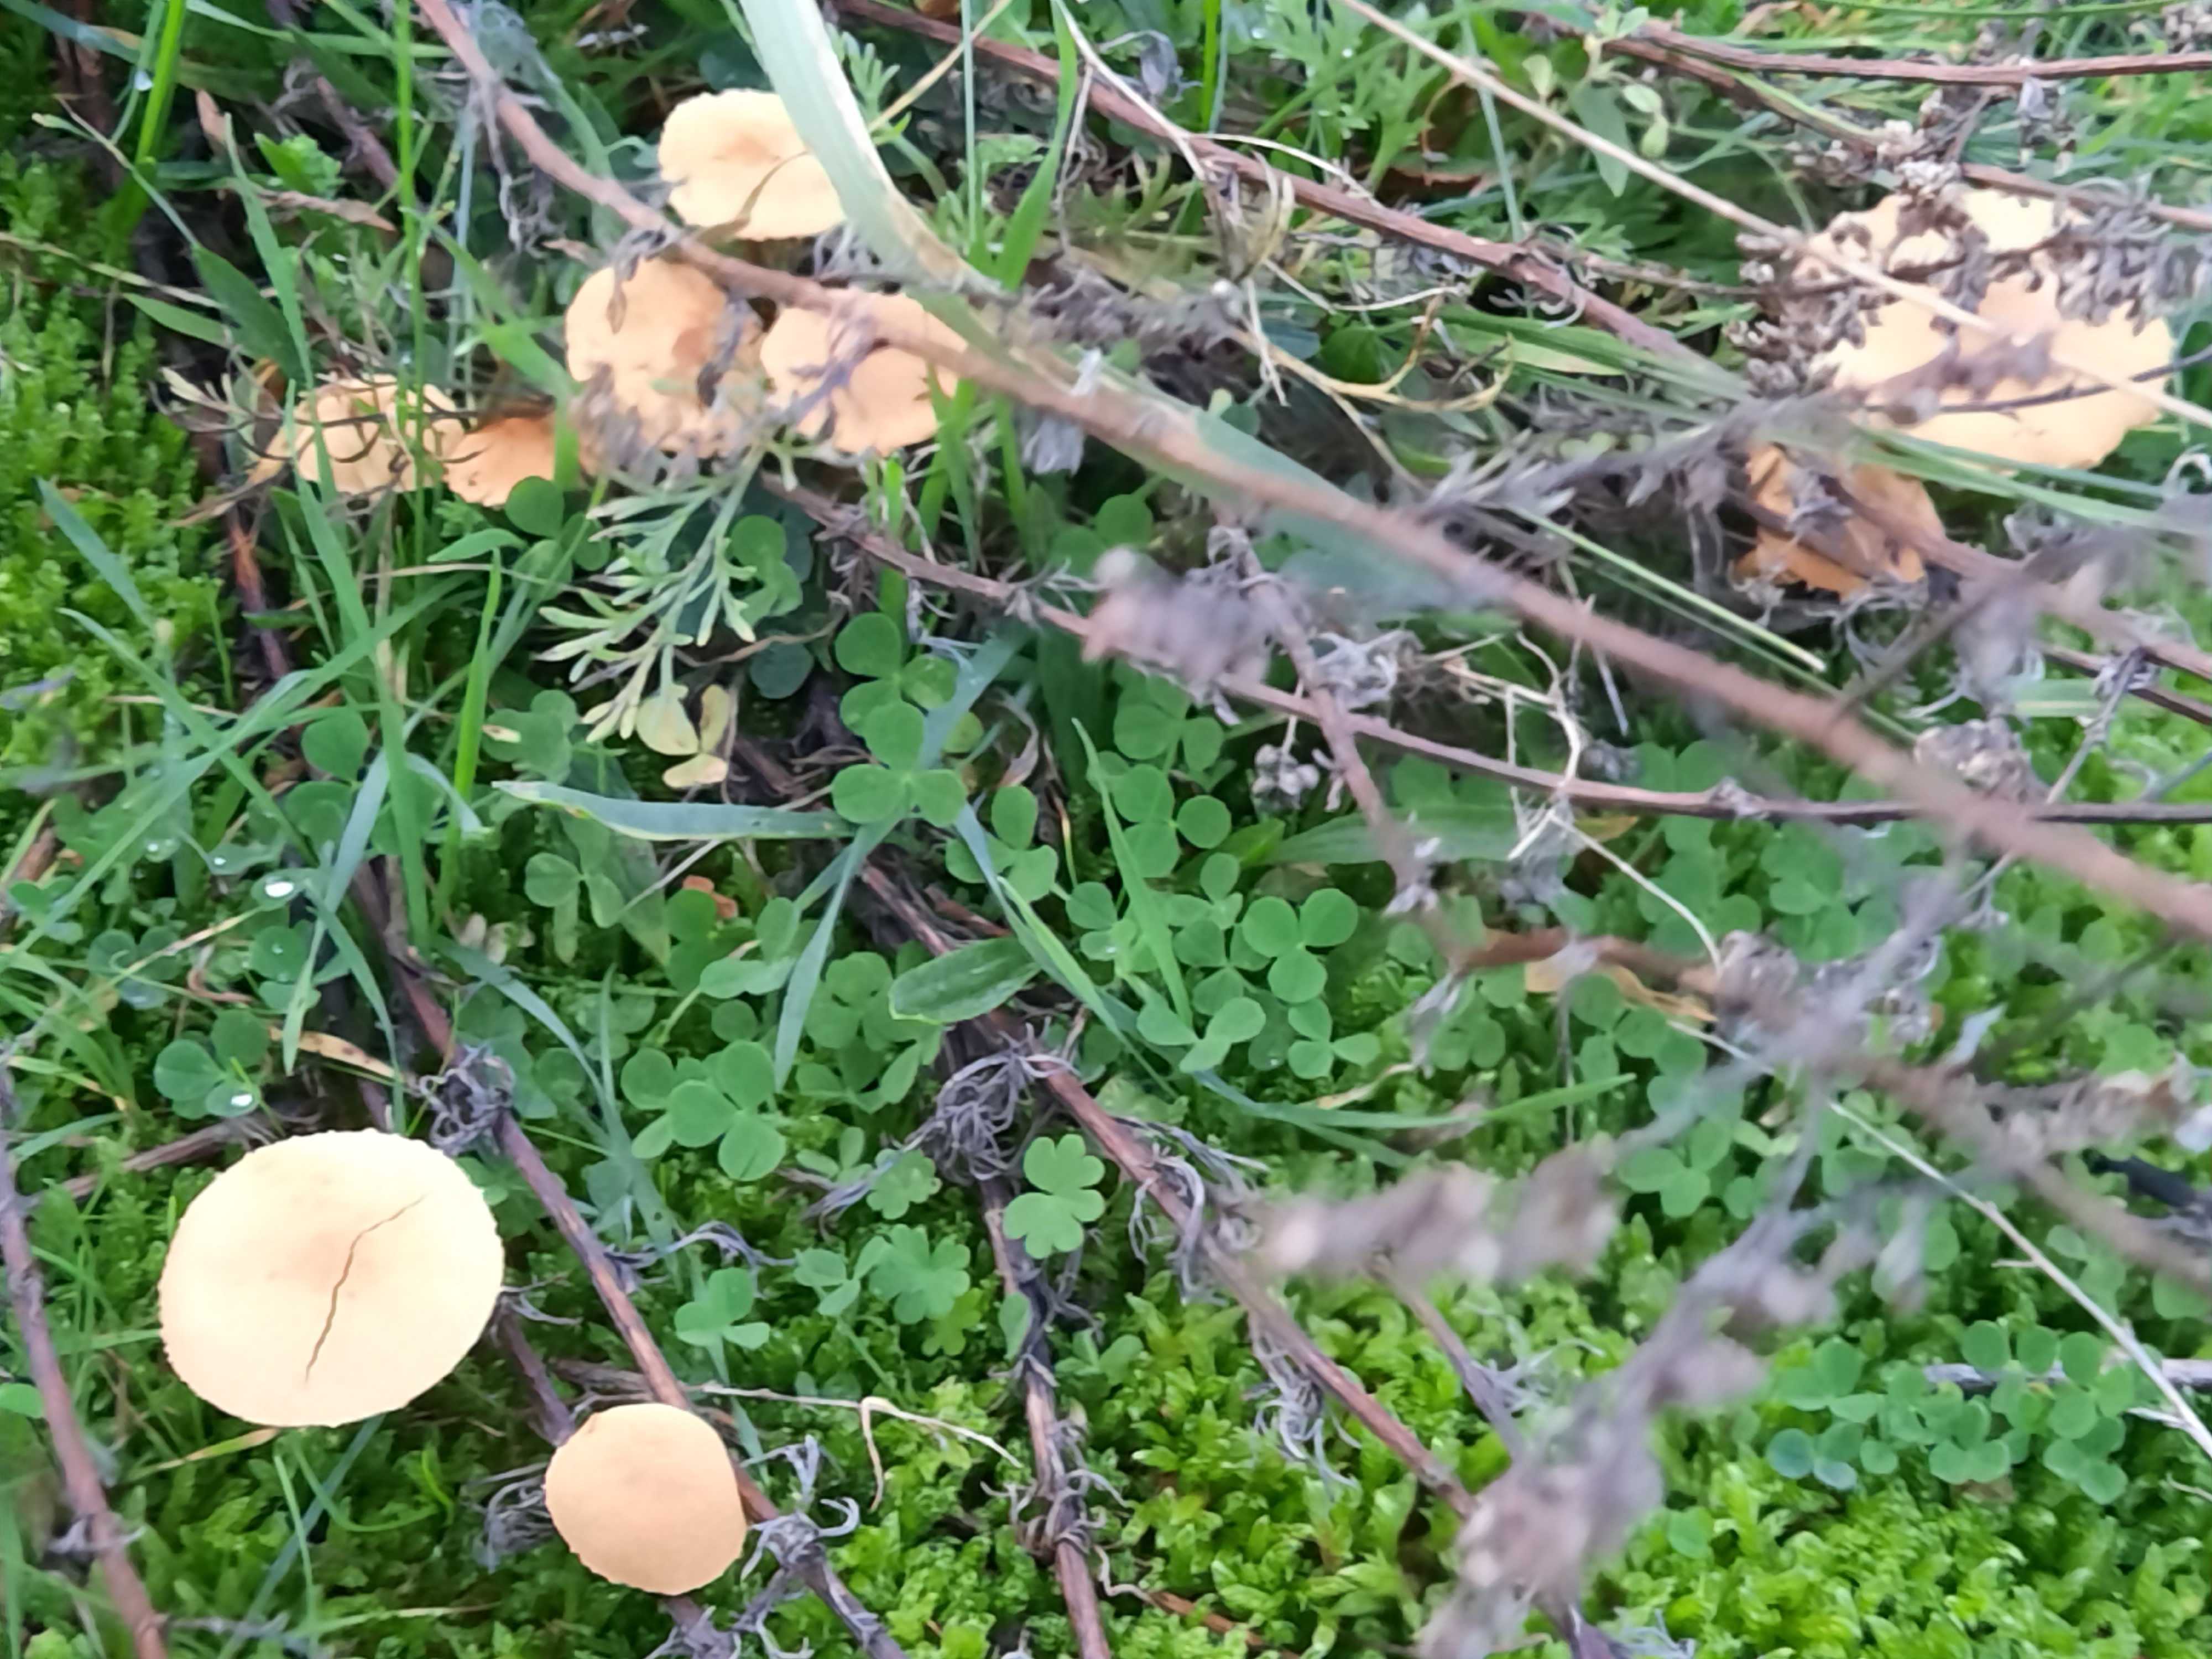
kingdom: Fungi
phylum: Basidiomycota
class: Agaricomycetes
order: Agaricales
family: Tricholomataceae
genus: Cystoderma
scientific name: Cystoderma amianthinum
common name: okkergul grynhat
